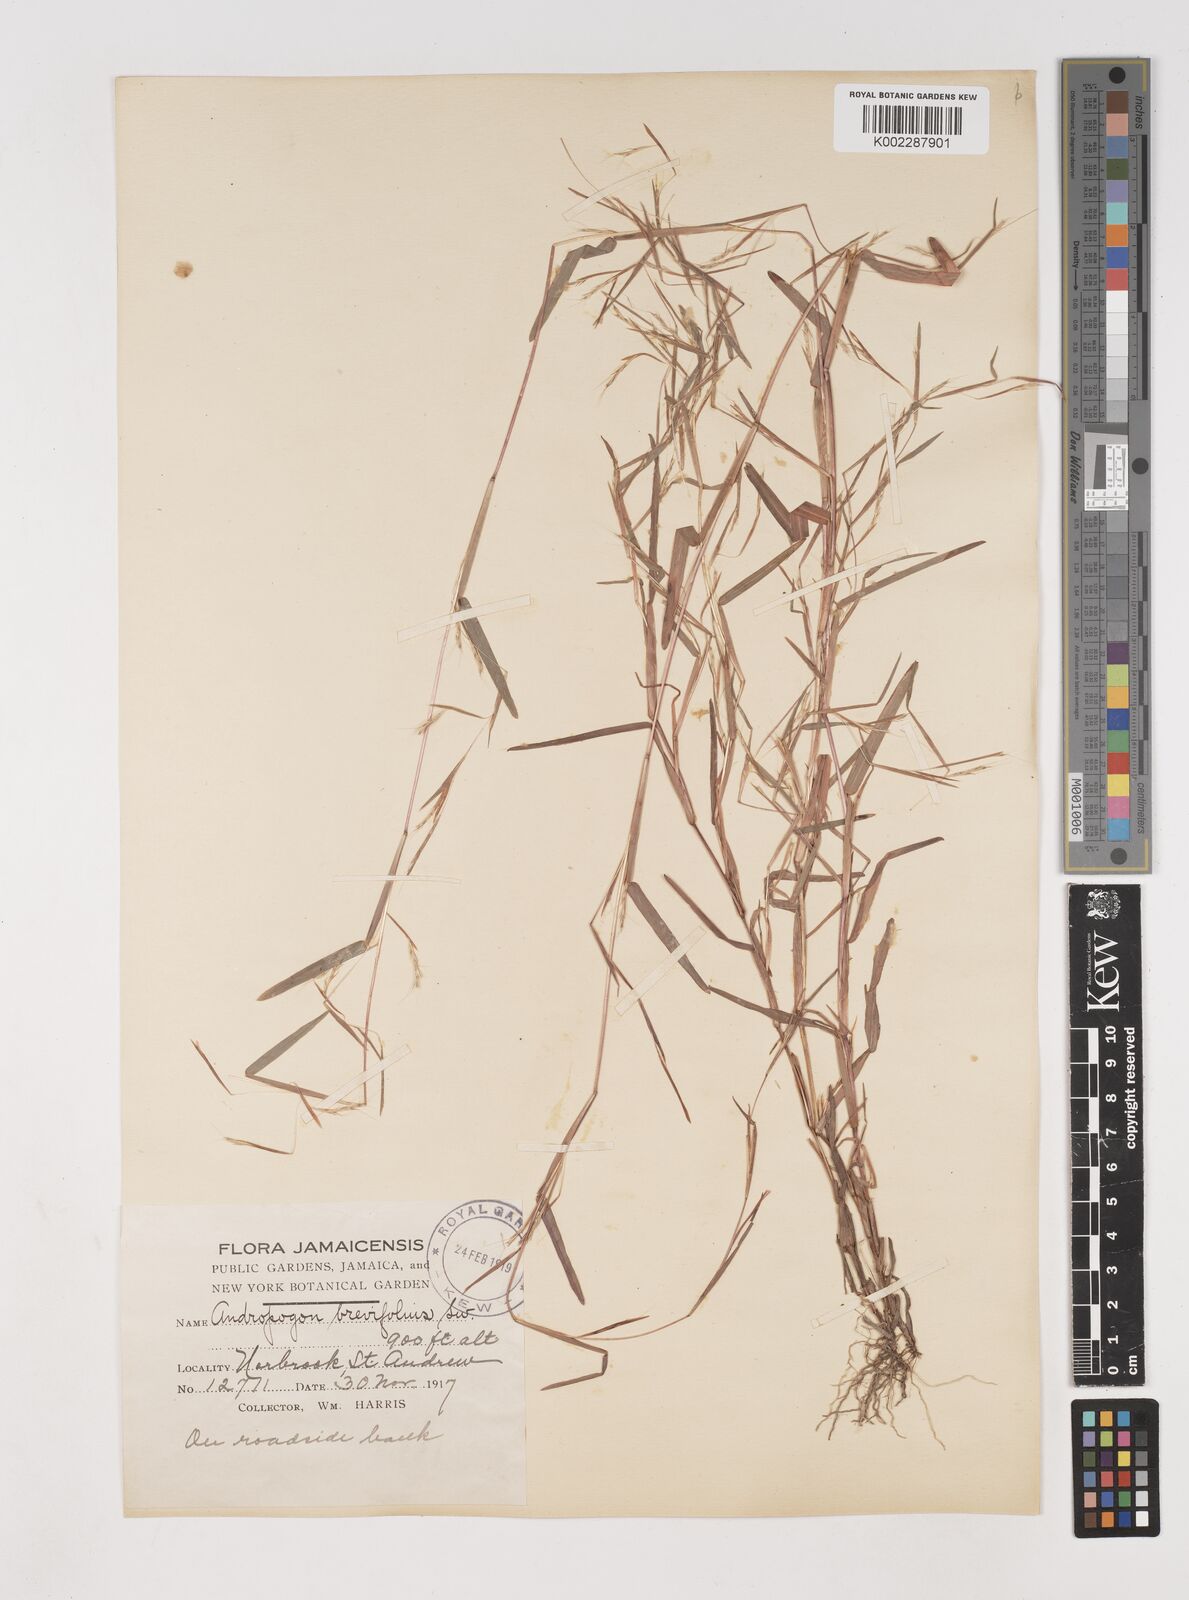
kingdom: Plantae
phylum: Tracheophyta
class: Liliopsida
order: Poales
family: Poaceae
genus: Schizachyrium
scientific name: Schizachyrium brevifolium
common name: Serillo dulce
